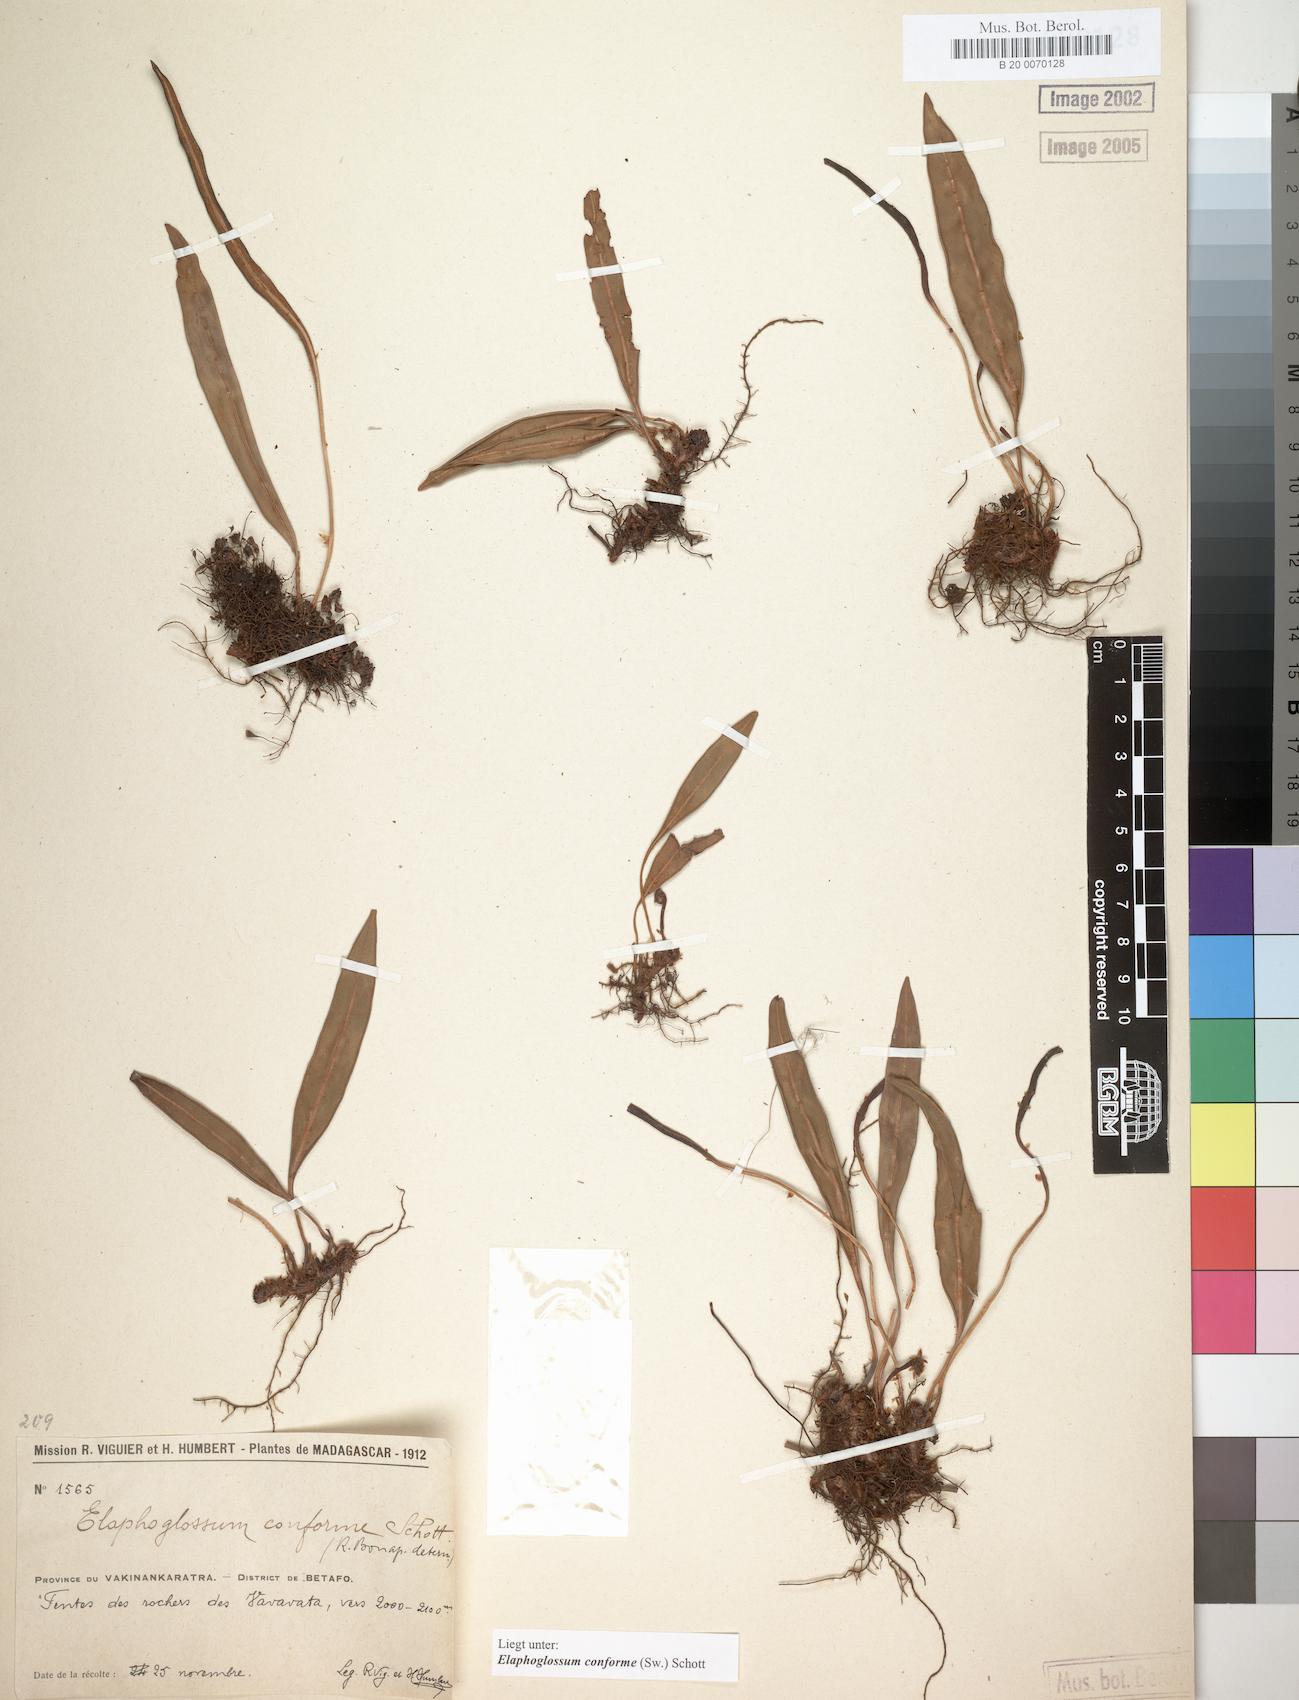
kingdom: Plantae
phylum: Tracheophyta
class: Polypodiopsida
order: Polypodiales
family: Dryopteridaceae
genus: Elaphoglossum
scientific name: Elaphoglossum conforme
